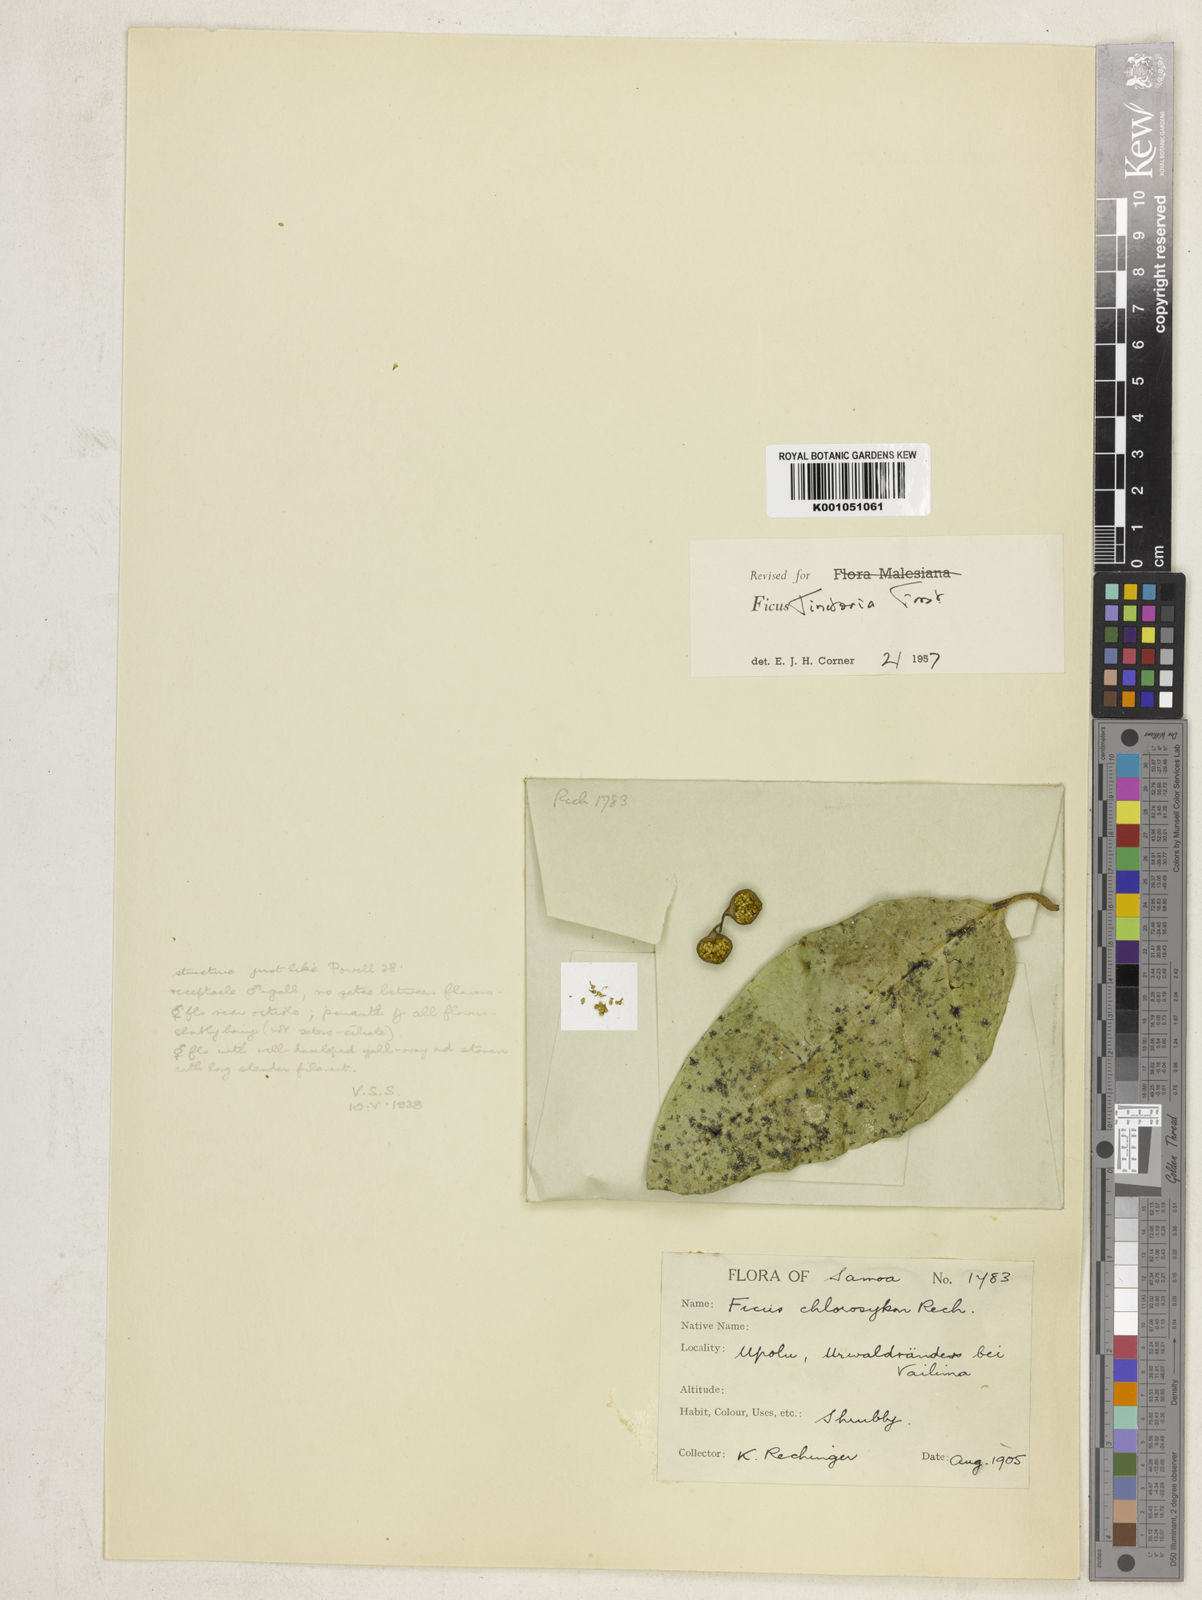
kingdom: Plantae
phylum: Tracheophyta
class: Magnoliopsida
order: Rosales
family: Moraceae
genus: Ficus
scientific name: Ficus tinctoria
